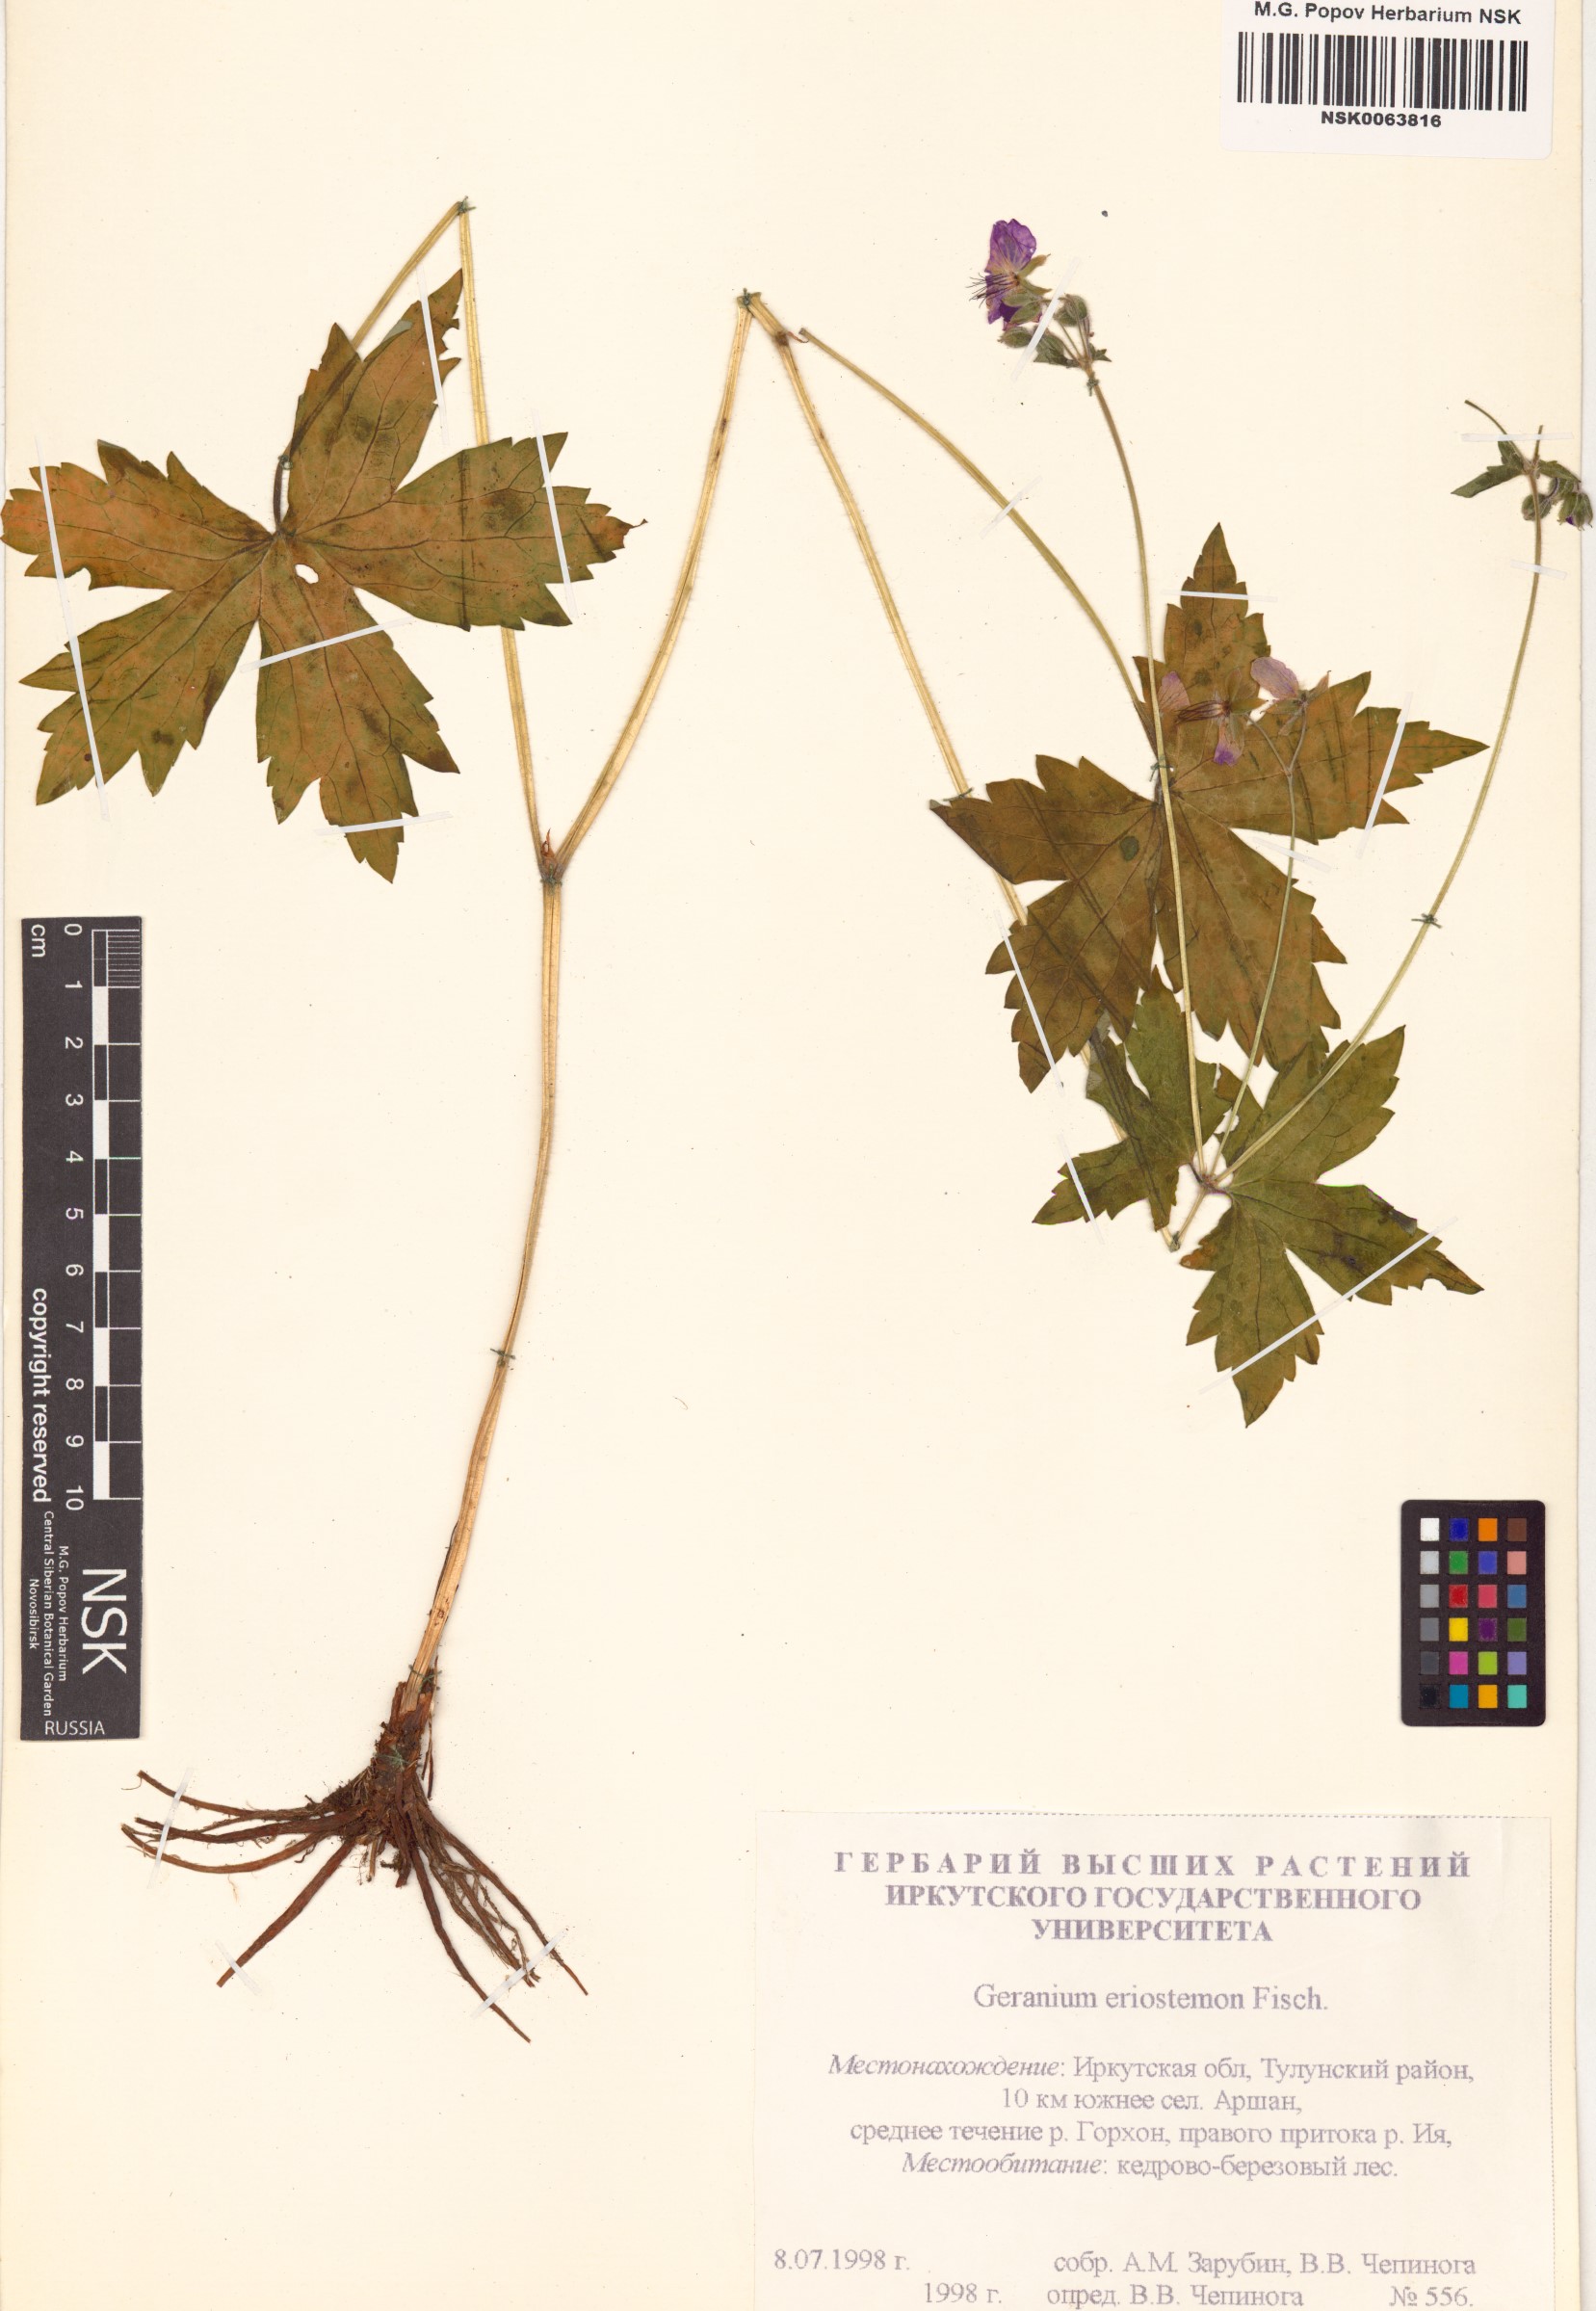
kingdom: Plantae
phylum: Tracheophyta
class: Magnoliopsida
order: Geraniales
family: Geraniaceae
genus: Geranium
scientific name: Geranium platyanthum
